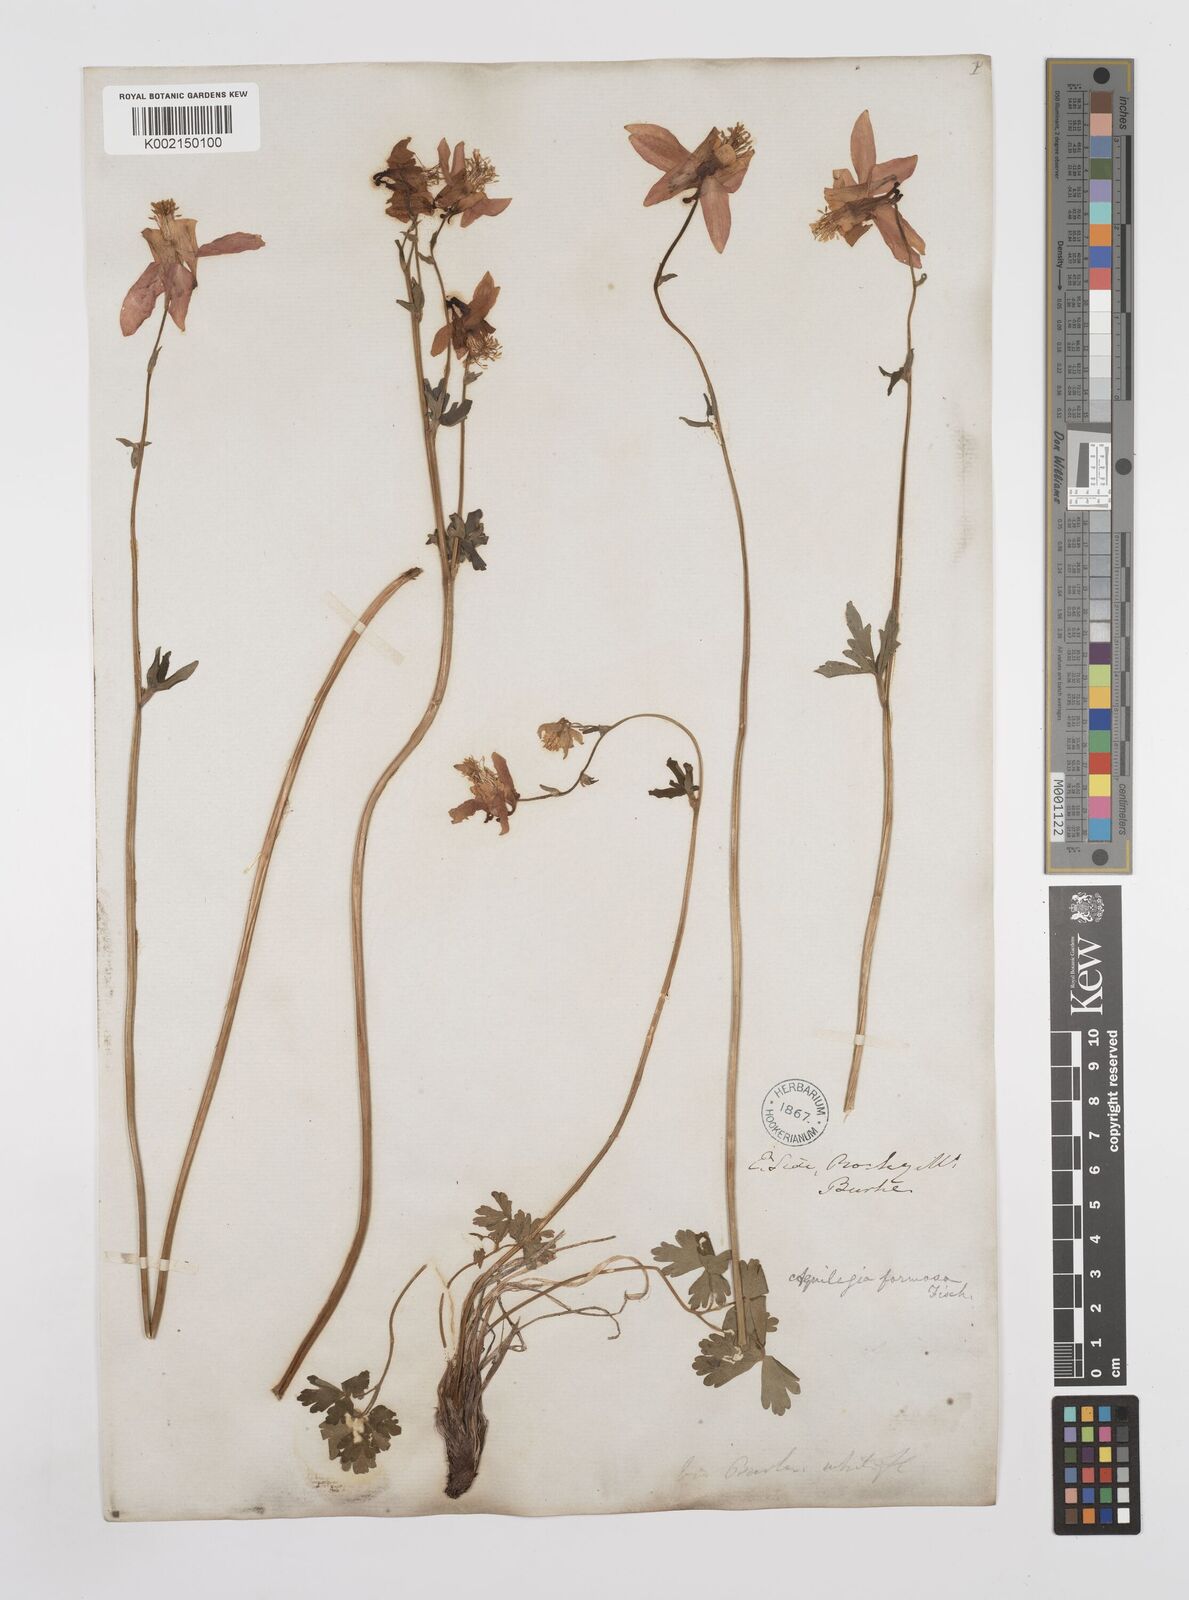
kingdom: Plantae
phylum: Tracheophyta
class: Magnoliopsida
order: Ranunculales
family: Ranunculaceae
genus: Aquilegia
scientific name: Aquilegia
